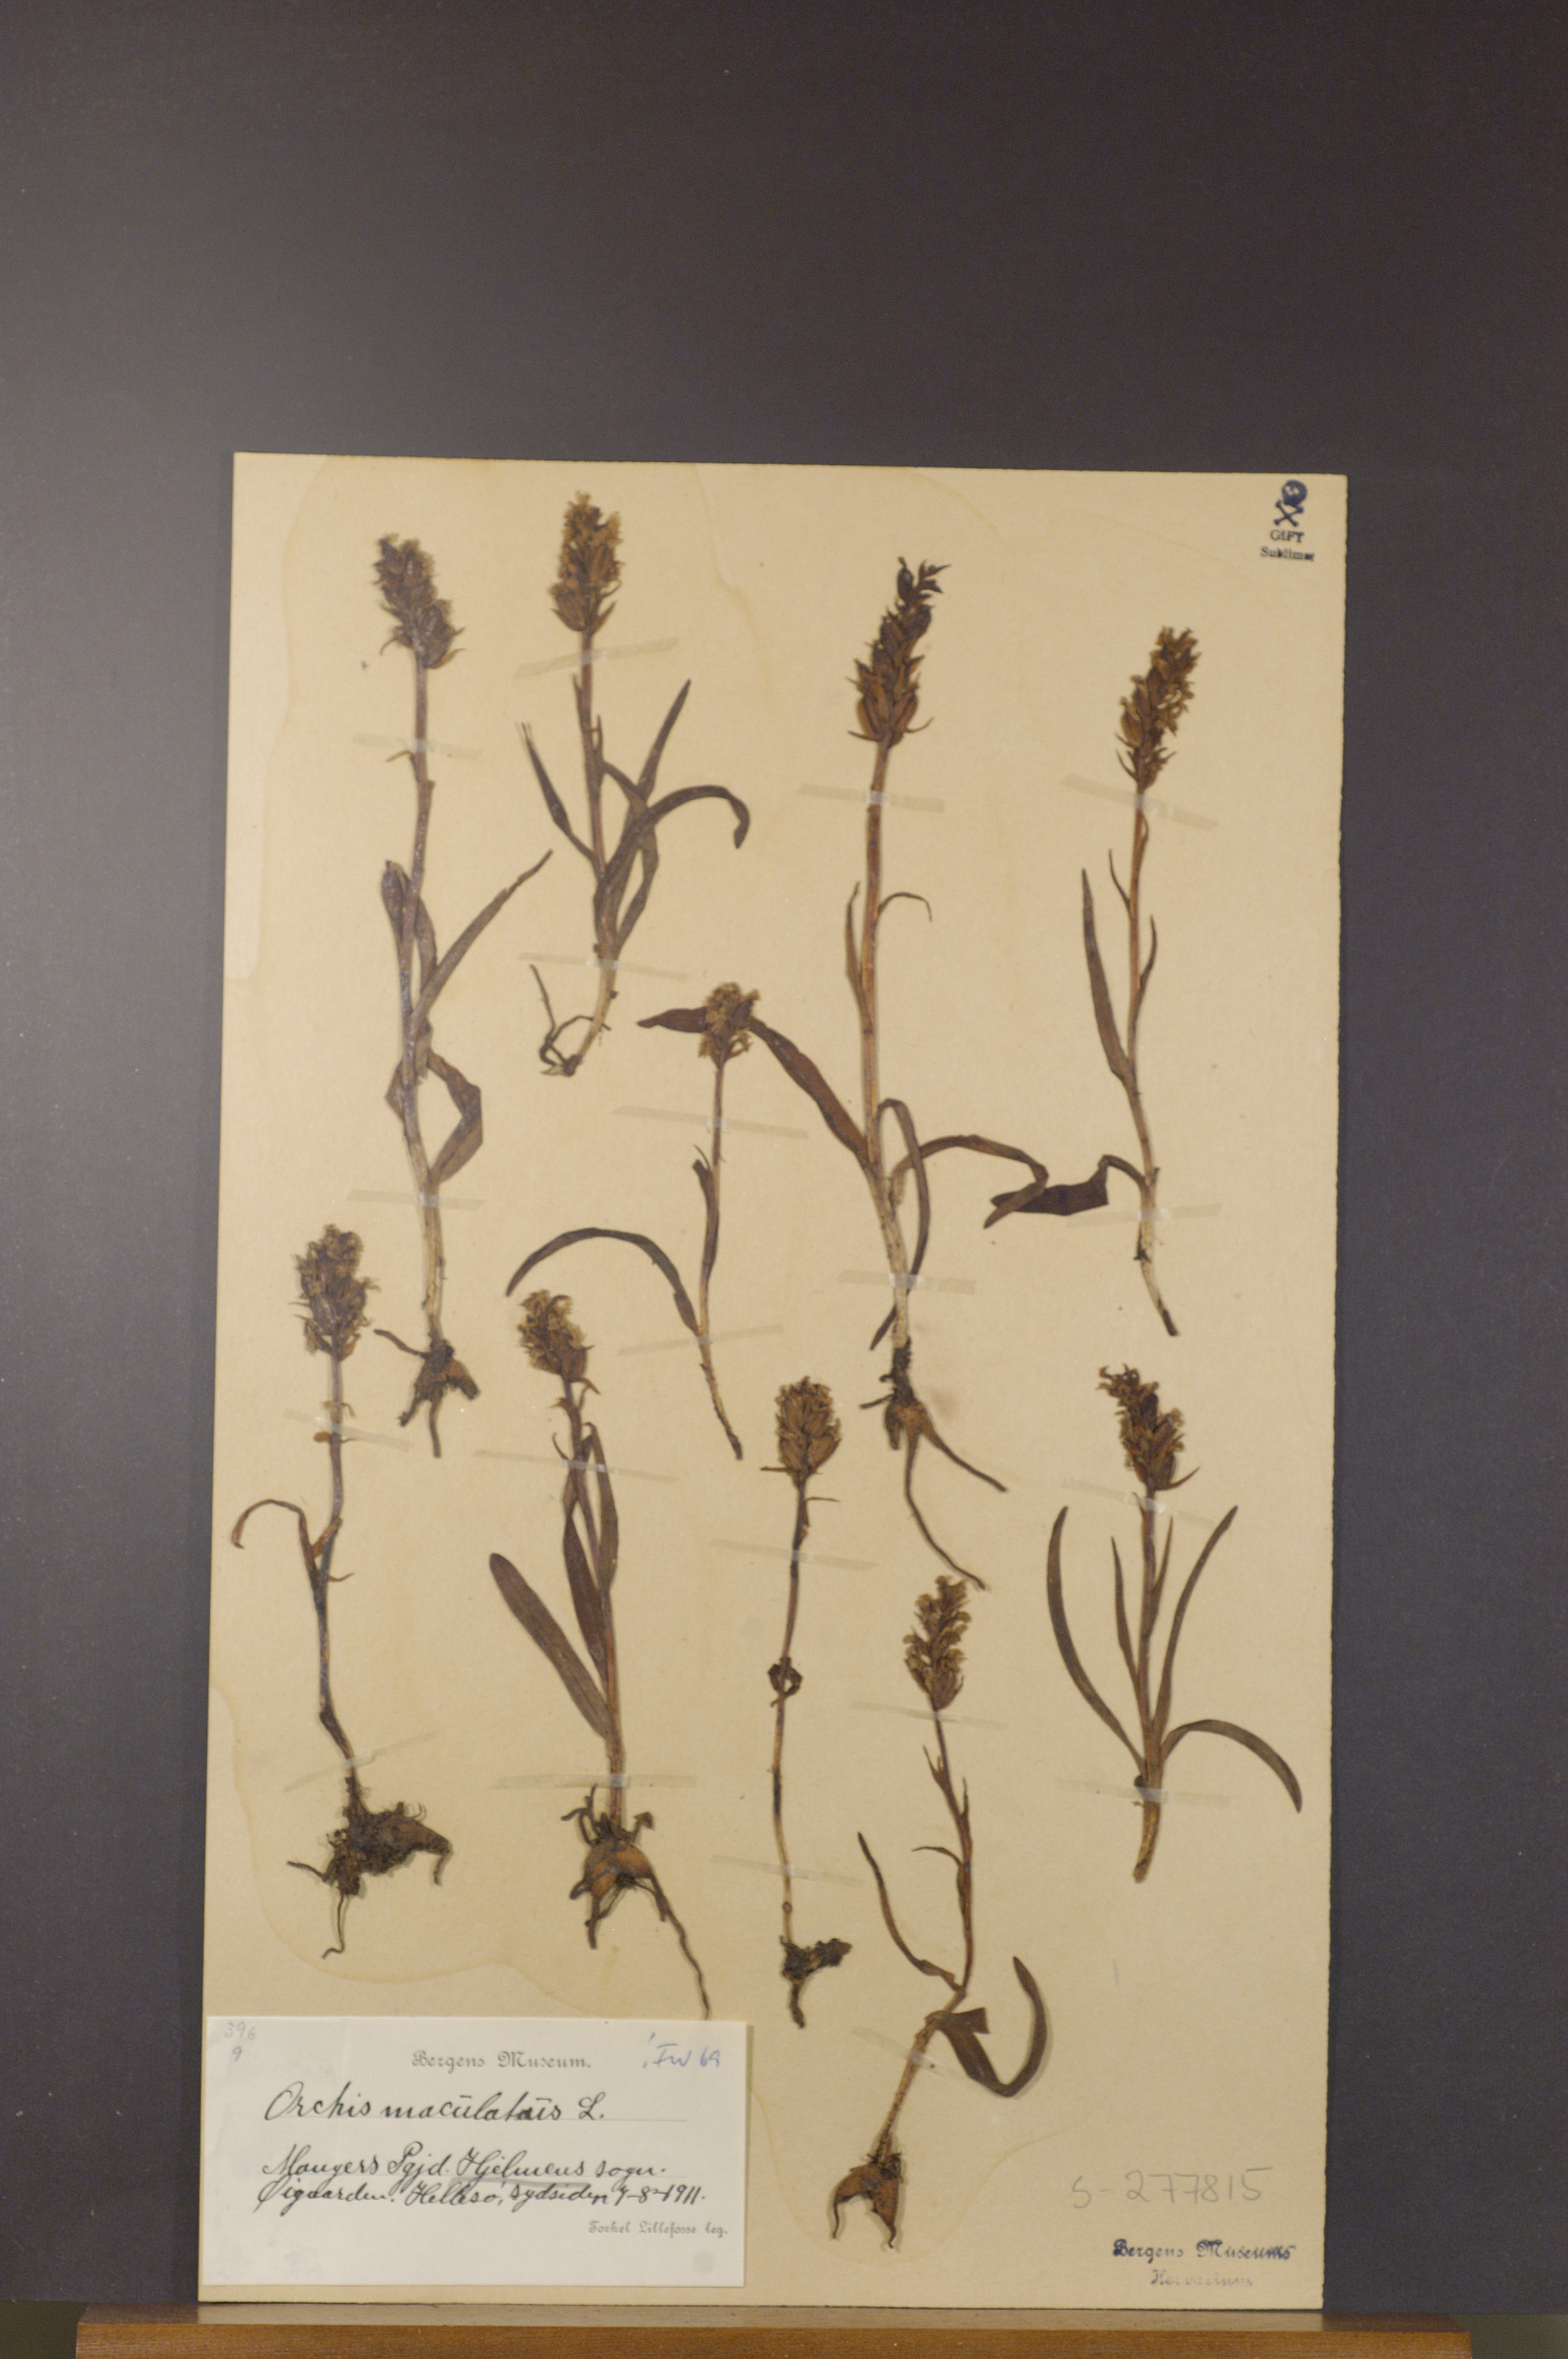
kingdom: Plantae
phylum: Tracheophyta
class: Liliopsida
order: Asparagales
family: Orchidaceae
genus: Dactylorhiza
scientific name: Dactylorhiza maculata
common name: Heath spotted-orchid
